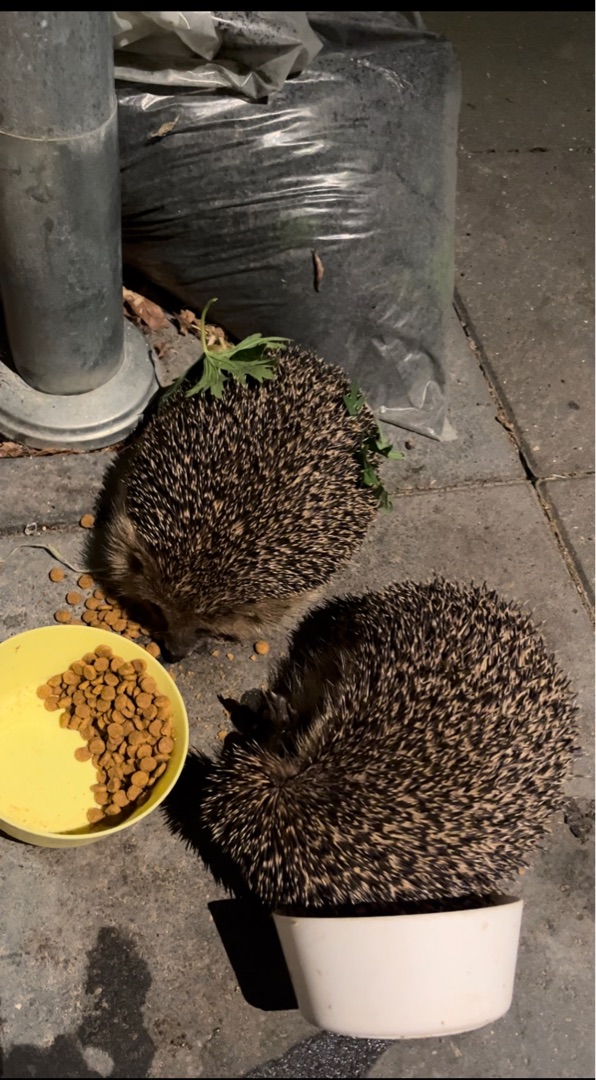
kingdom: Animalia
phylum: Chordata
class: Mammalia
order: Erinaceomorpha
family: Erinaceidae
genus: Erinaceus
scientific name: Erinaceus europaeus
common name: Pindsvin
